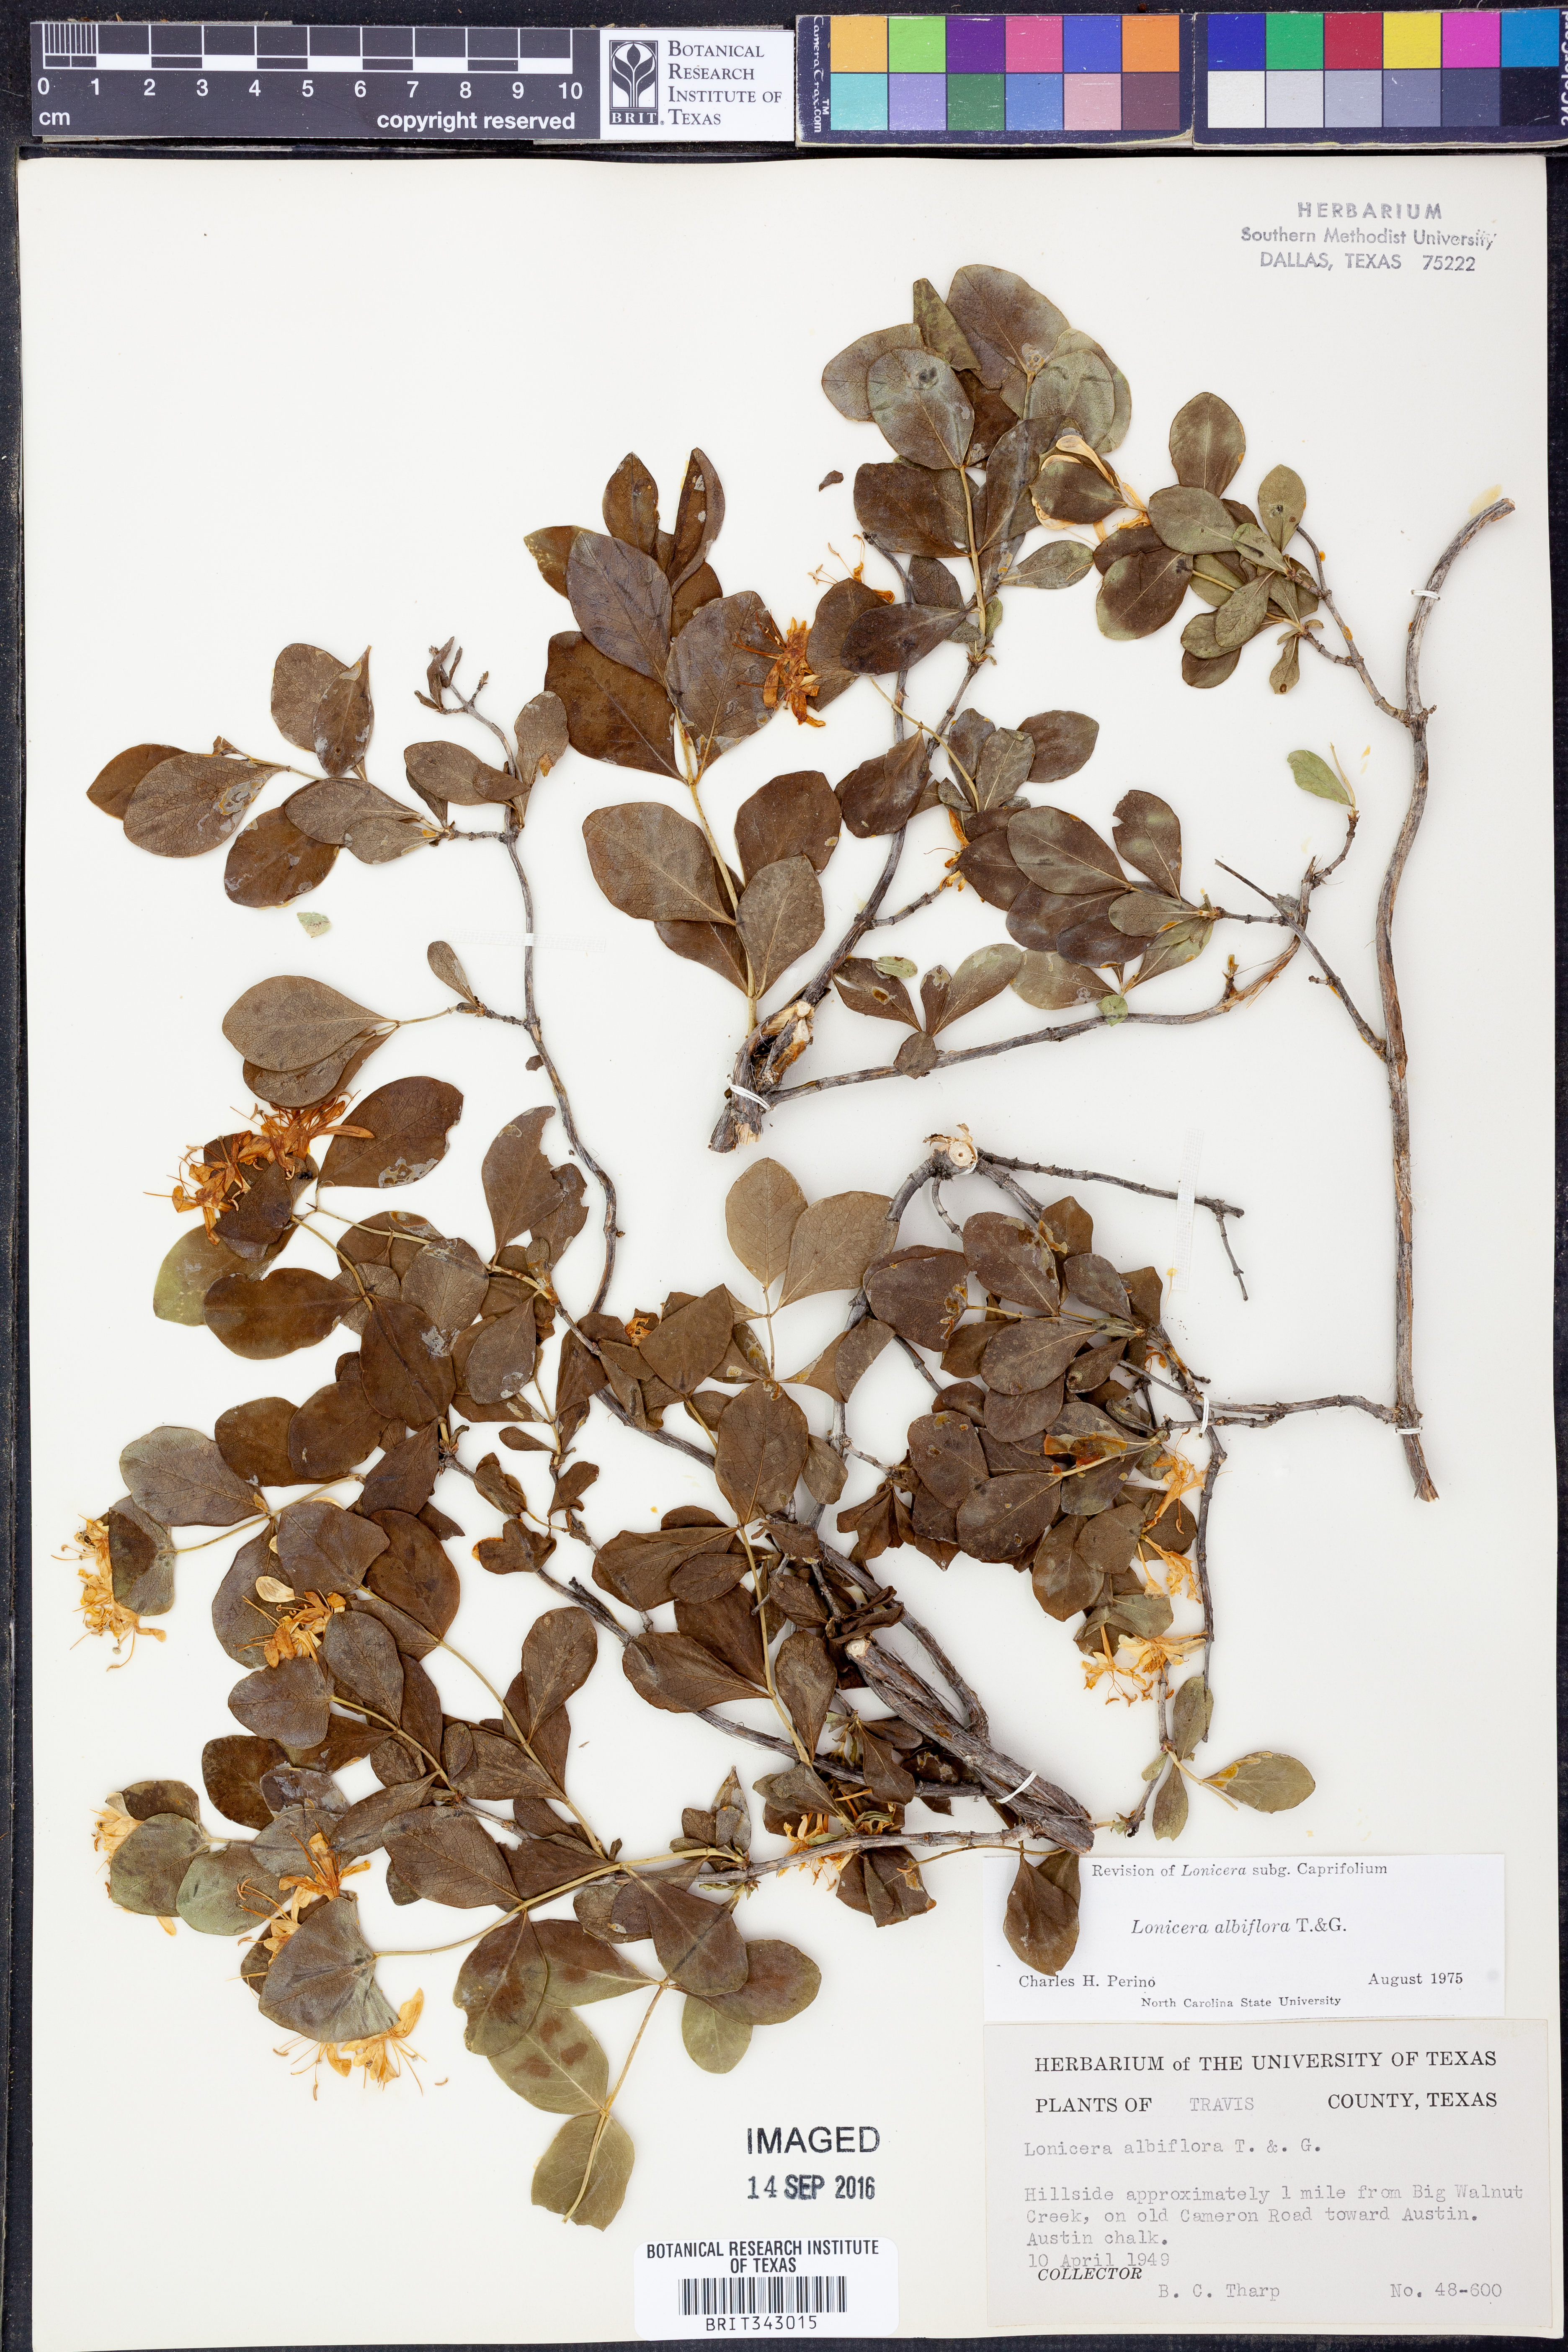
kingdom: Plantae
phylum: Tracheophyta
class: Magnoliopsida
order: Dipsacales
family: Caprifoliaceae
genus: Lonicera
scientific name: Lonicera albiflora
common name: White honeysuckle
